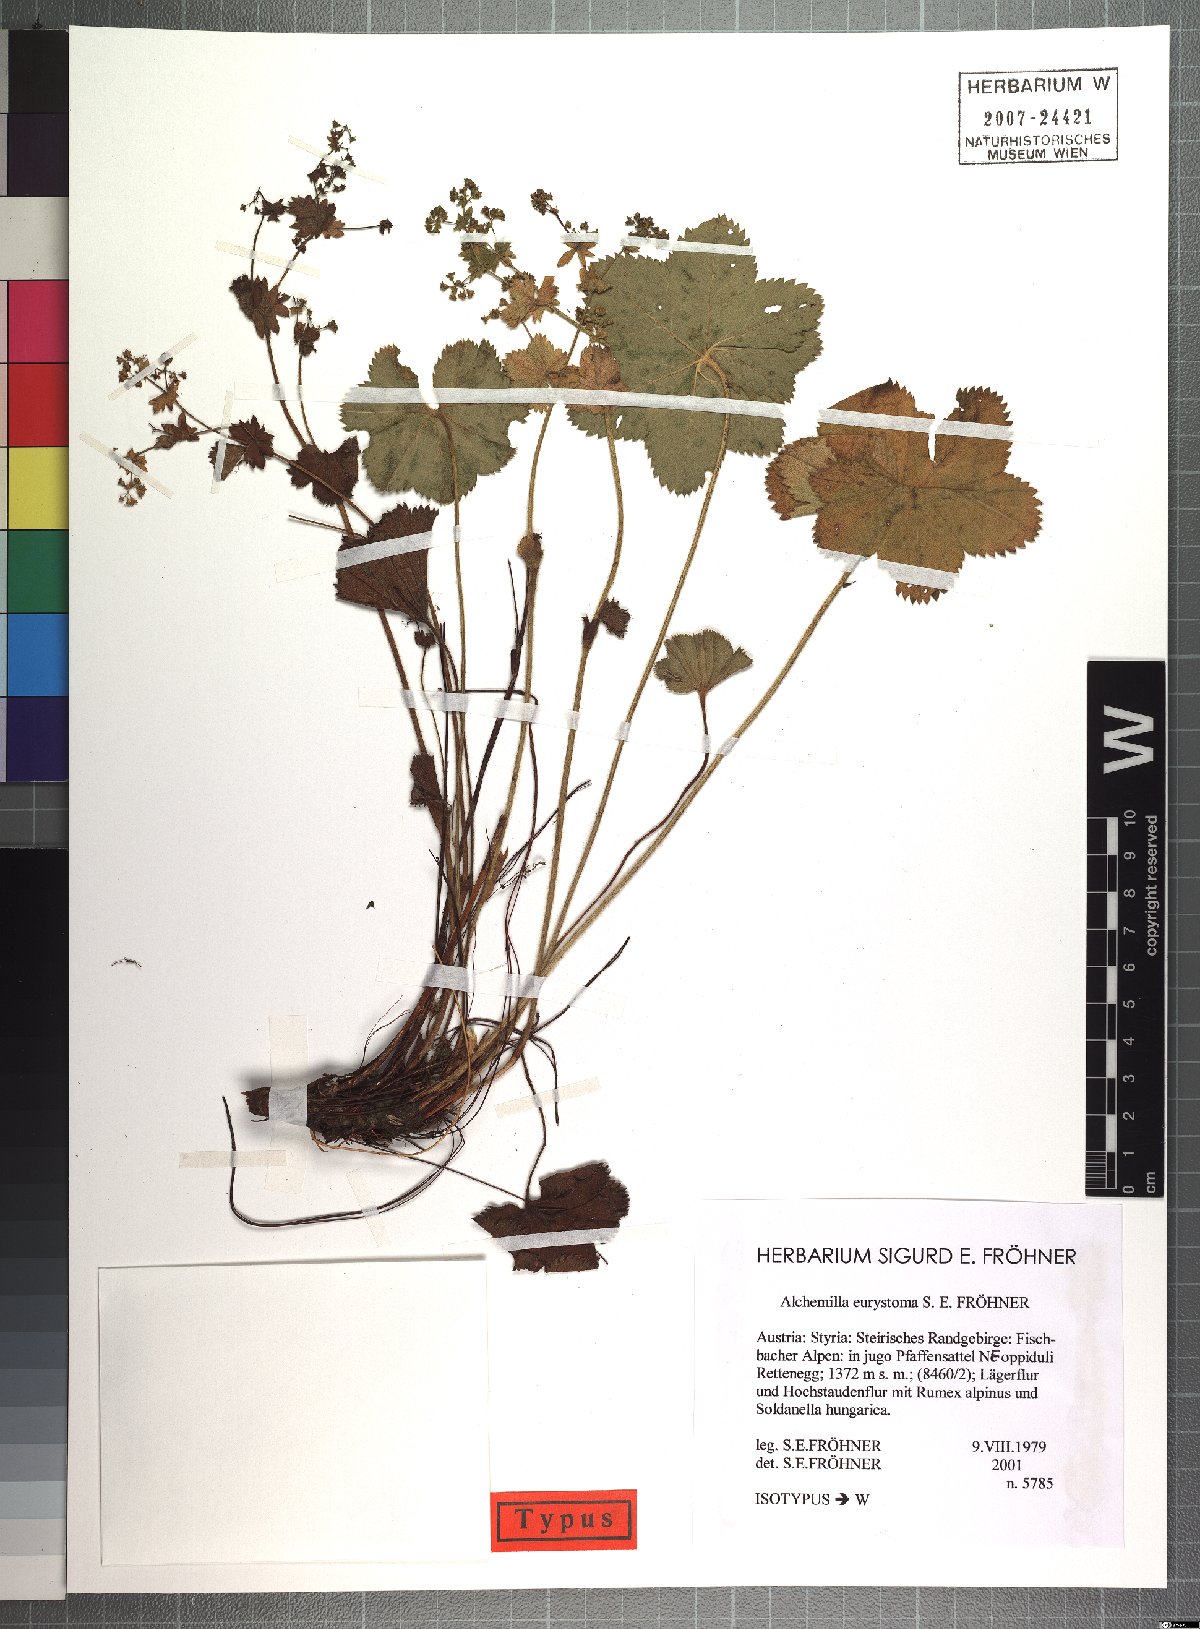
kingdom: Plantae
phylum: Tracheophyta
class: Magnoliopsida
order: Rosales
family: Rosaceae
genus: Alchemilla
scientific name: Alchemilla eurystoma
